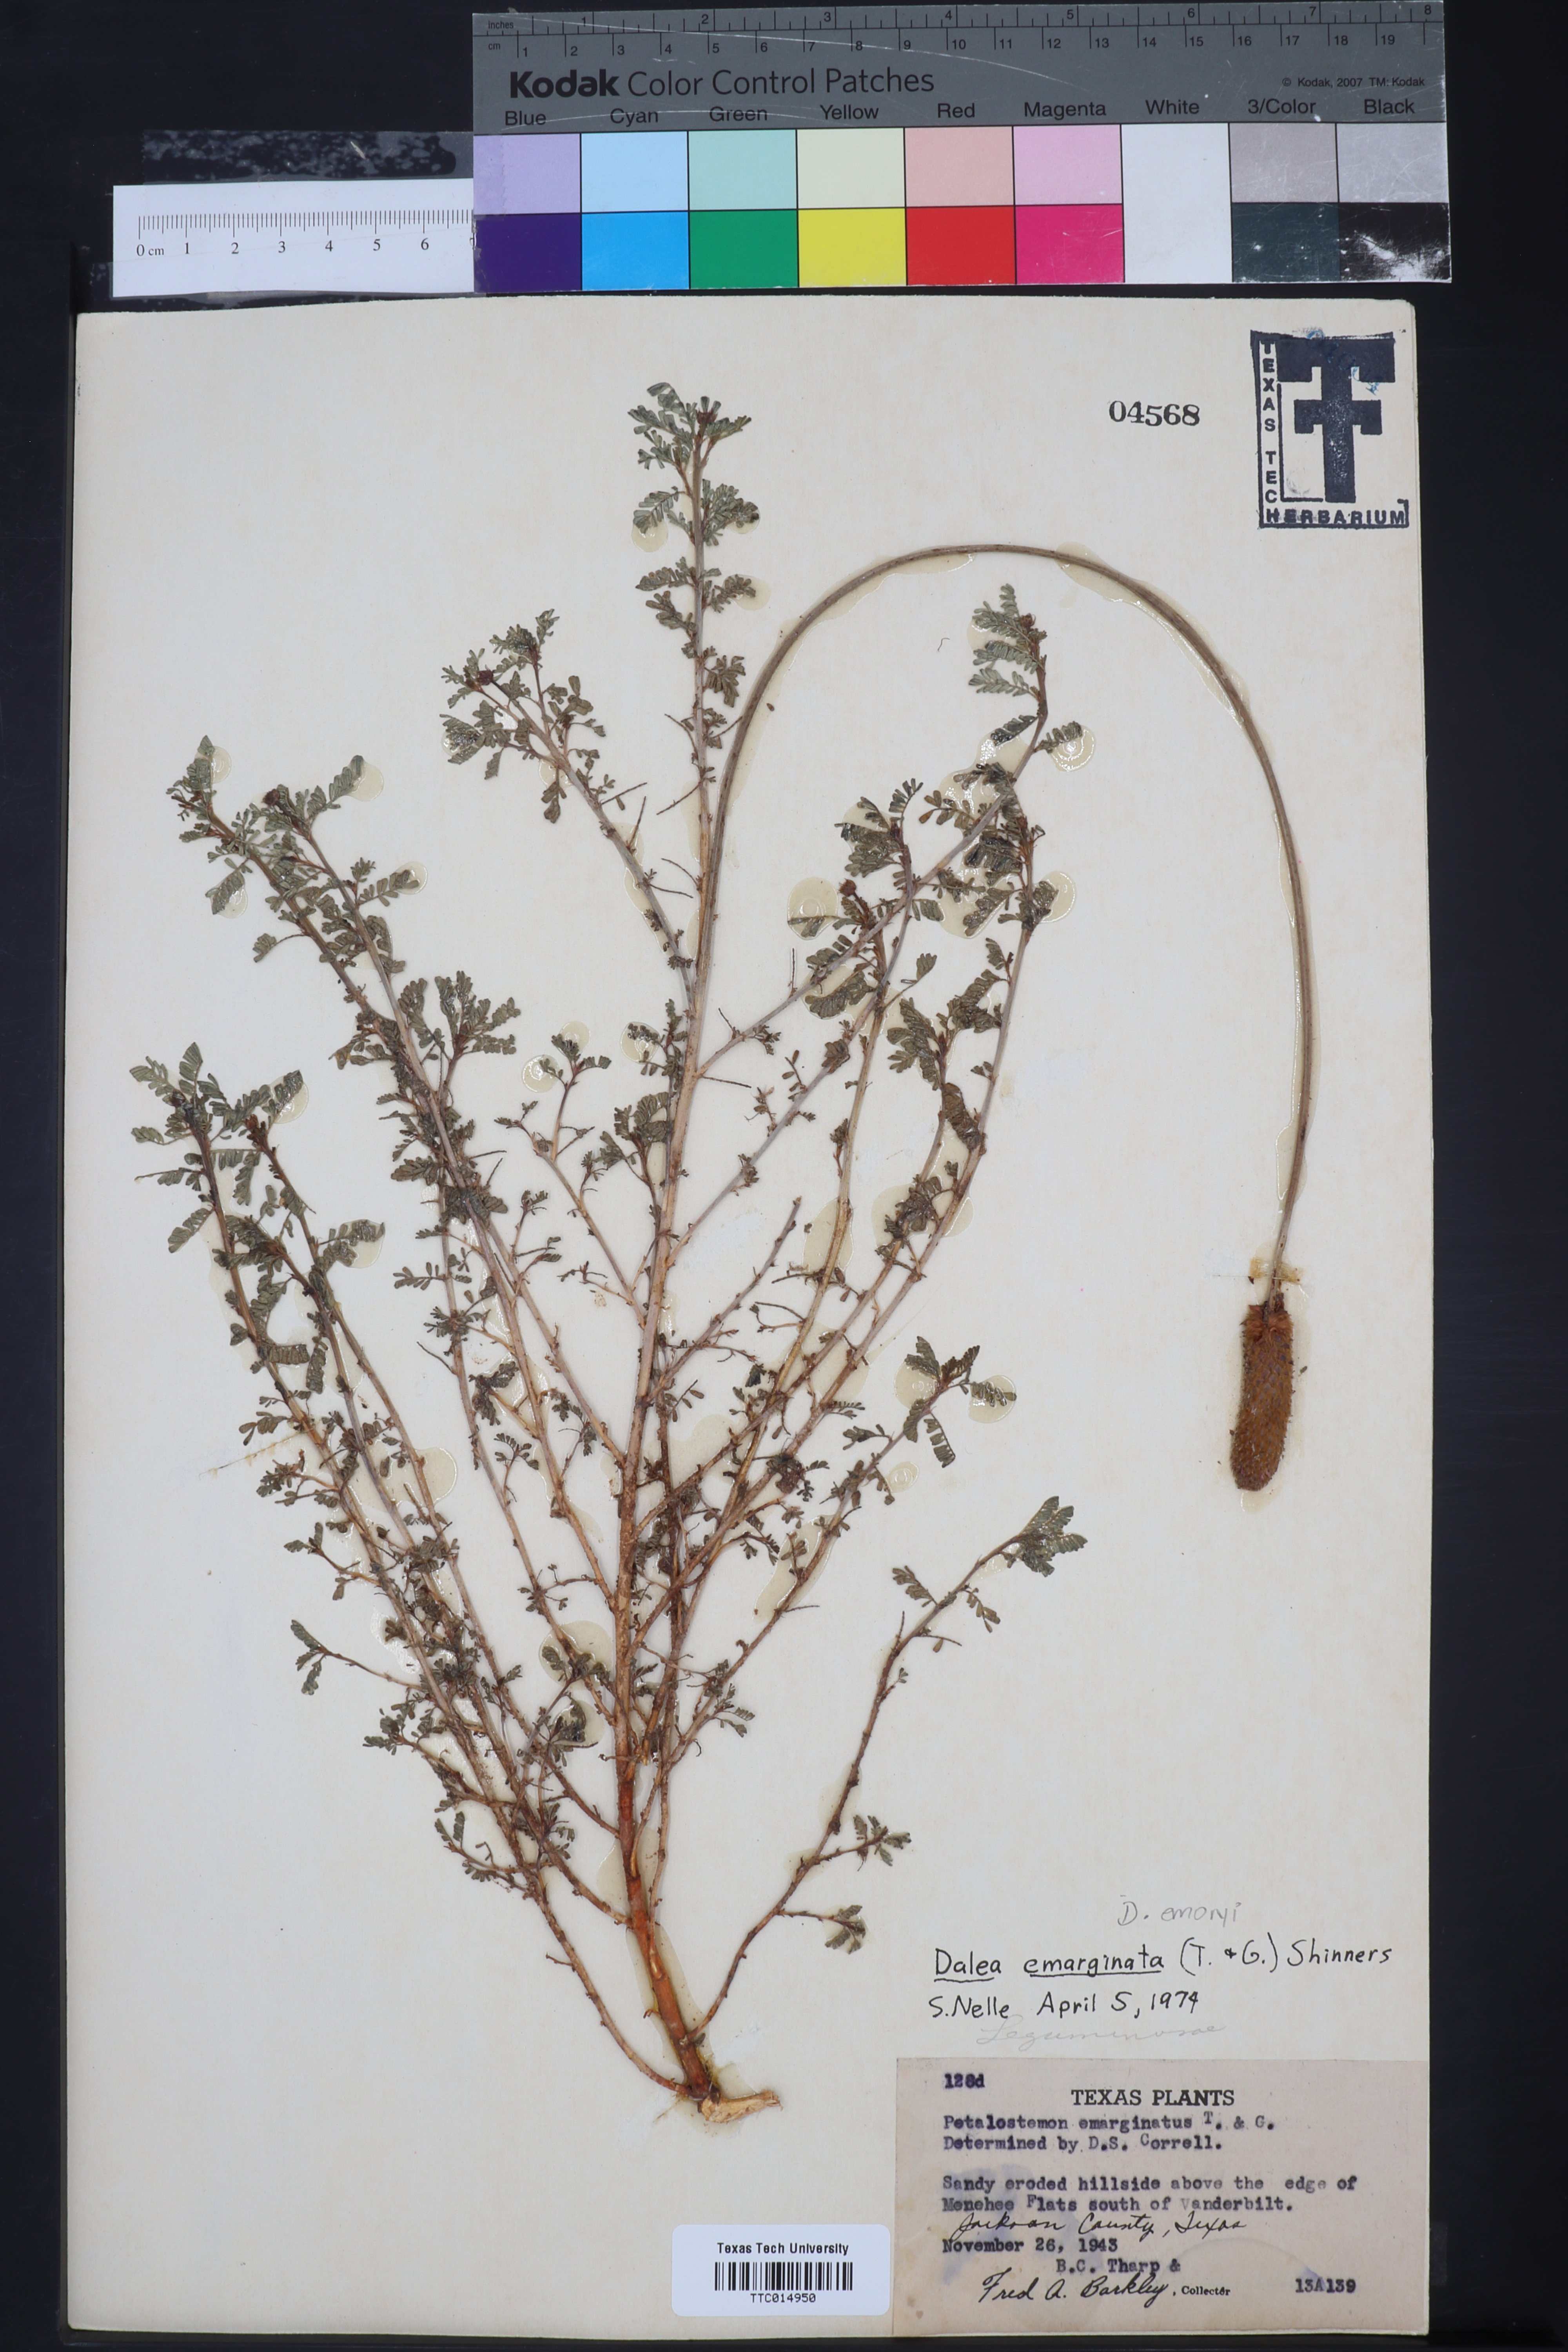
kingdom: Plantae
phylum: Tracheophyta
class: Magnoliopsida
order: Fabales
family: Fabaceae
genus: Dalea
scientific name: Dalea emarginata
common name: Wedgeleaf prairie clover
